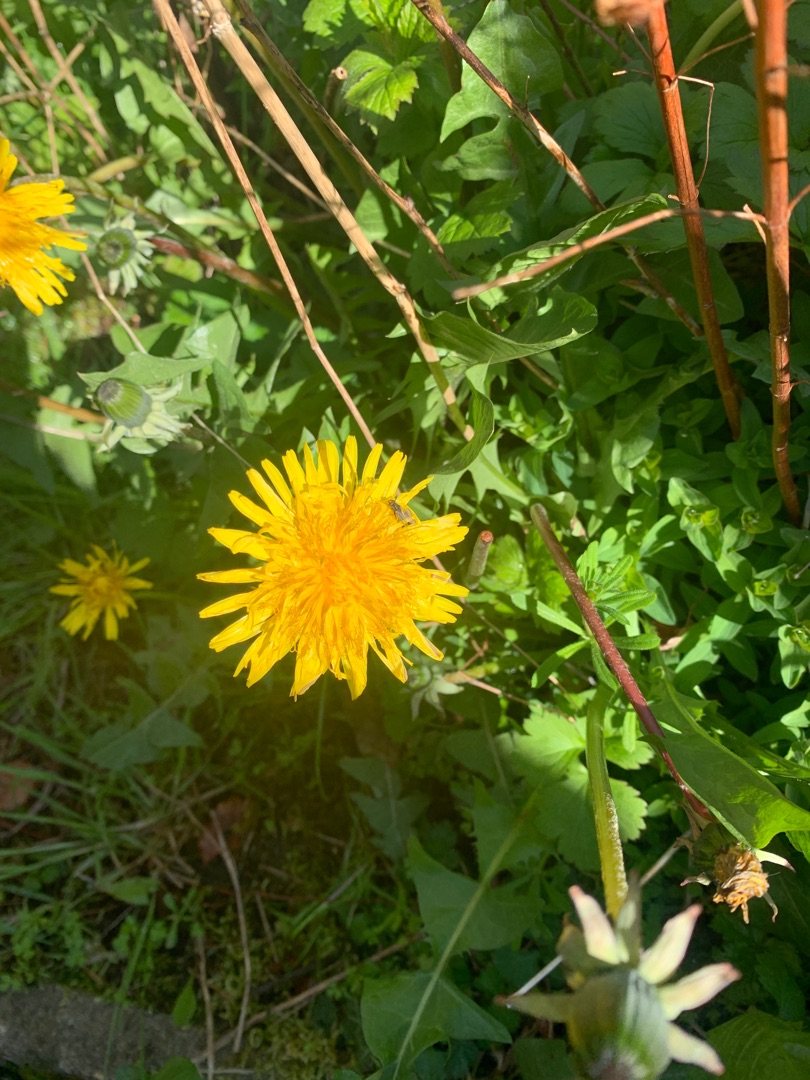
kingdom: Plantae
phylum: Tracheophyta
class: Magnoliopsida
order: Asterales
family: Asteraceae
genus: Taraxacum
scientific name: Taraxacum
